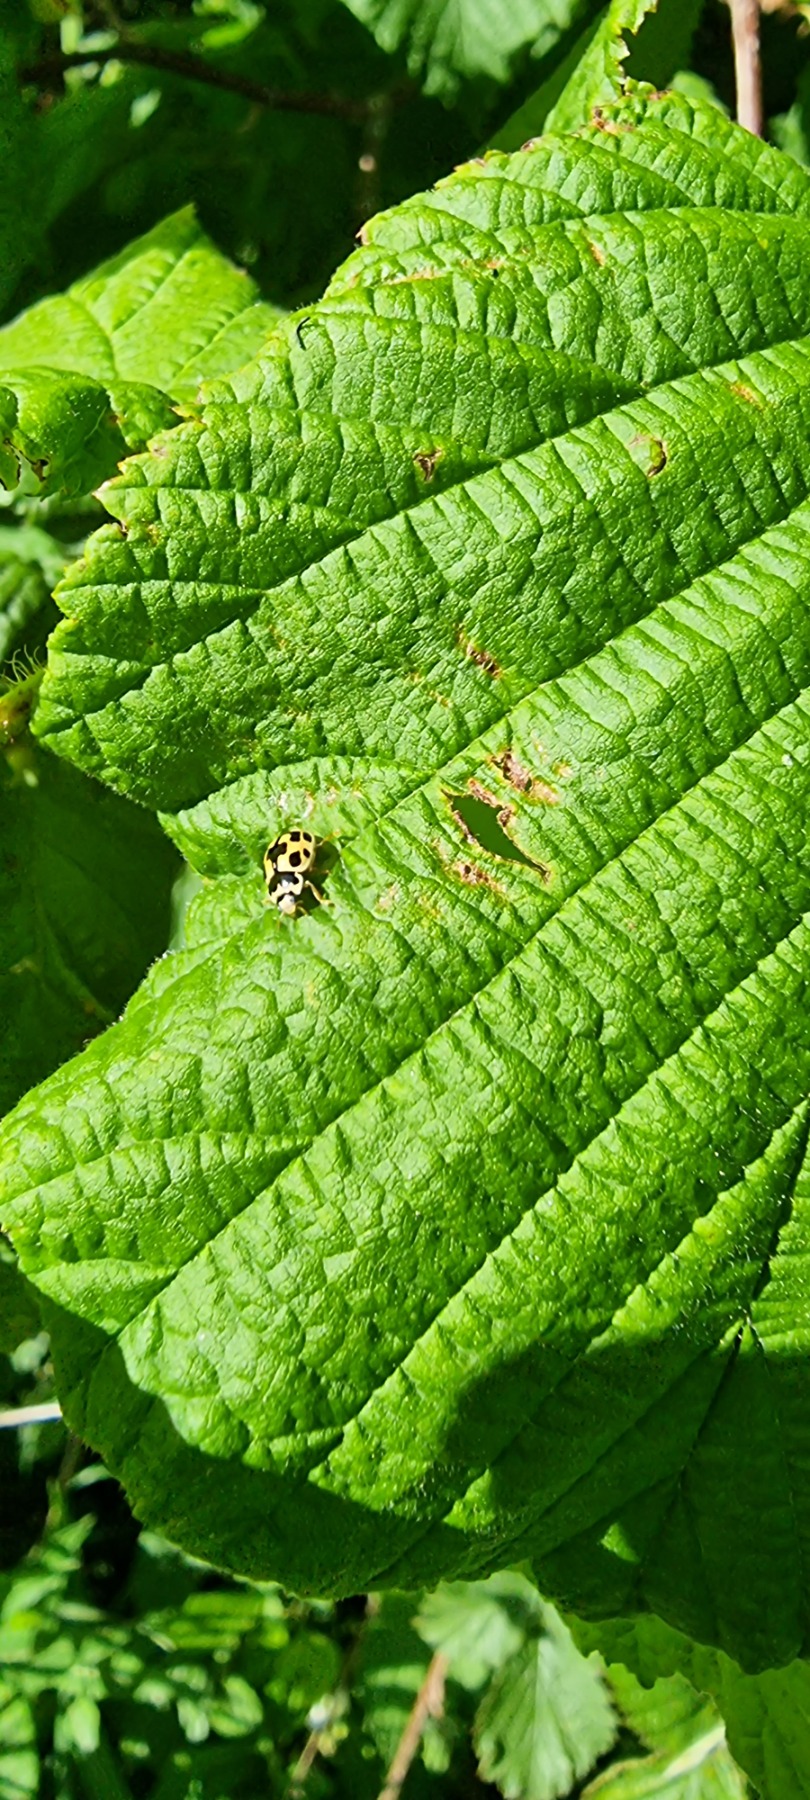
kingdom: Animalia
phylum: Arthropoda
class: Insecta
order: Coleoptera
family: Coccinellidae
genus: Propylaea
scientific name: Propylaea quatuordecimpunctata
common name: Skakbræt
